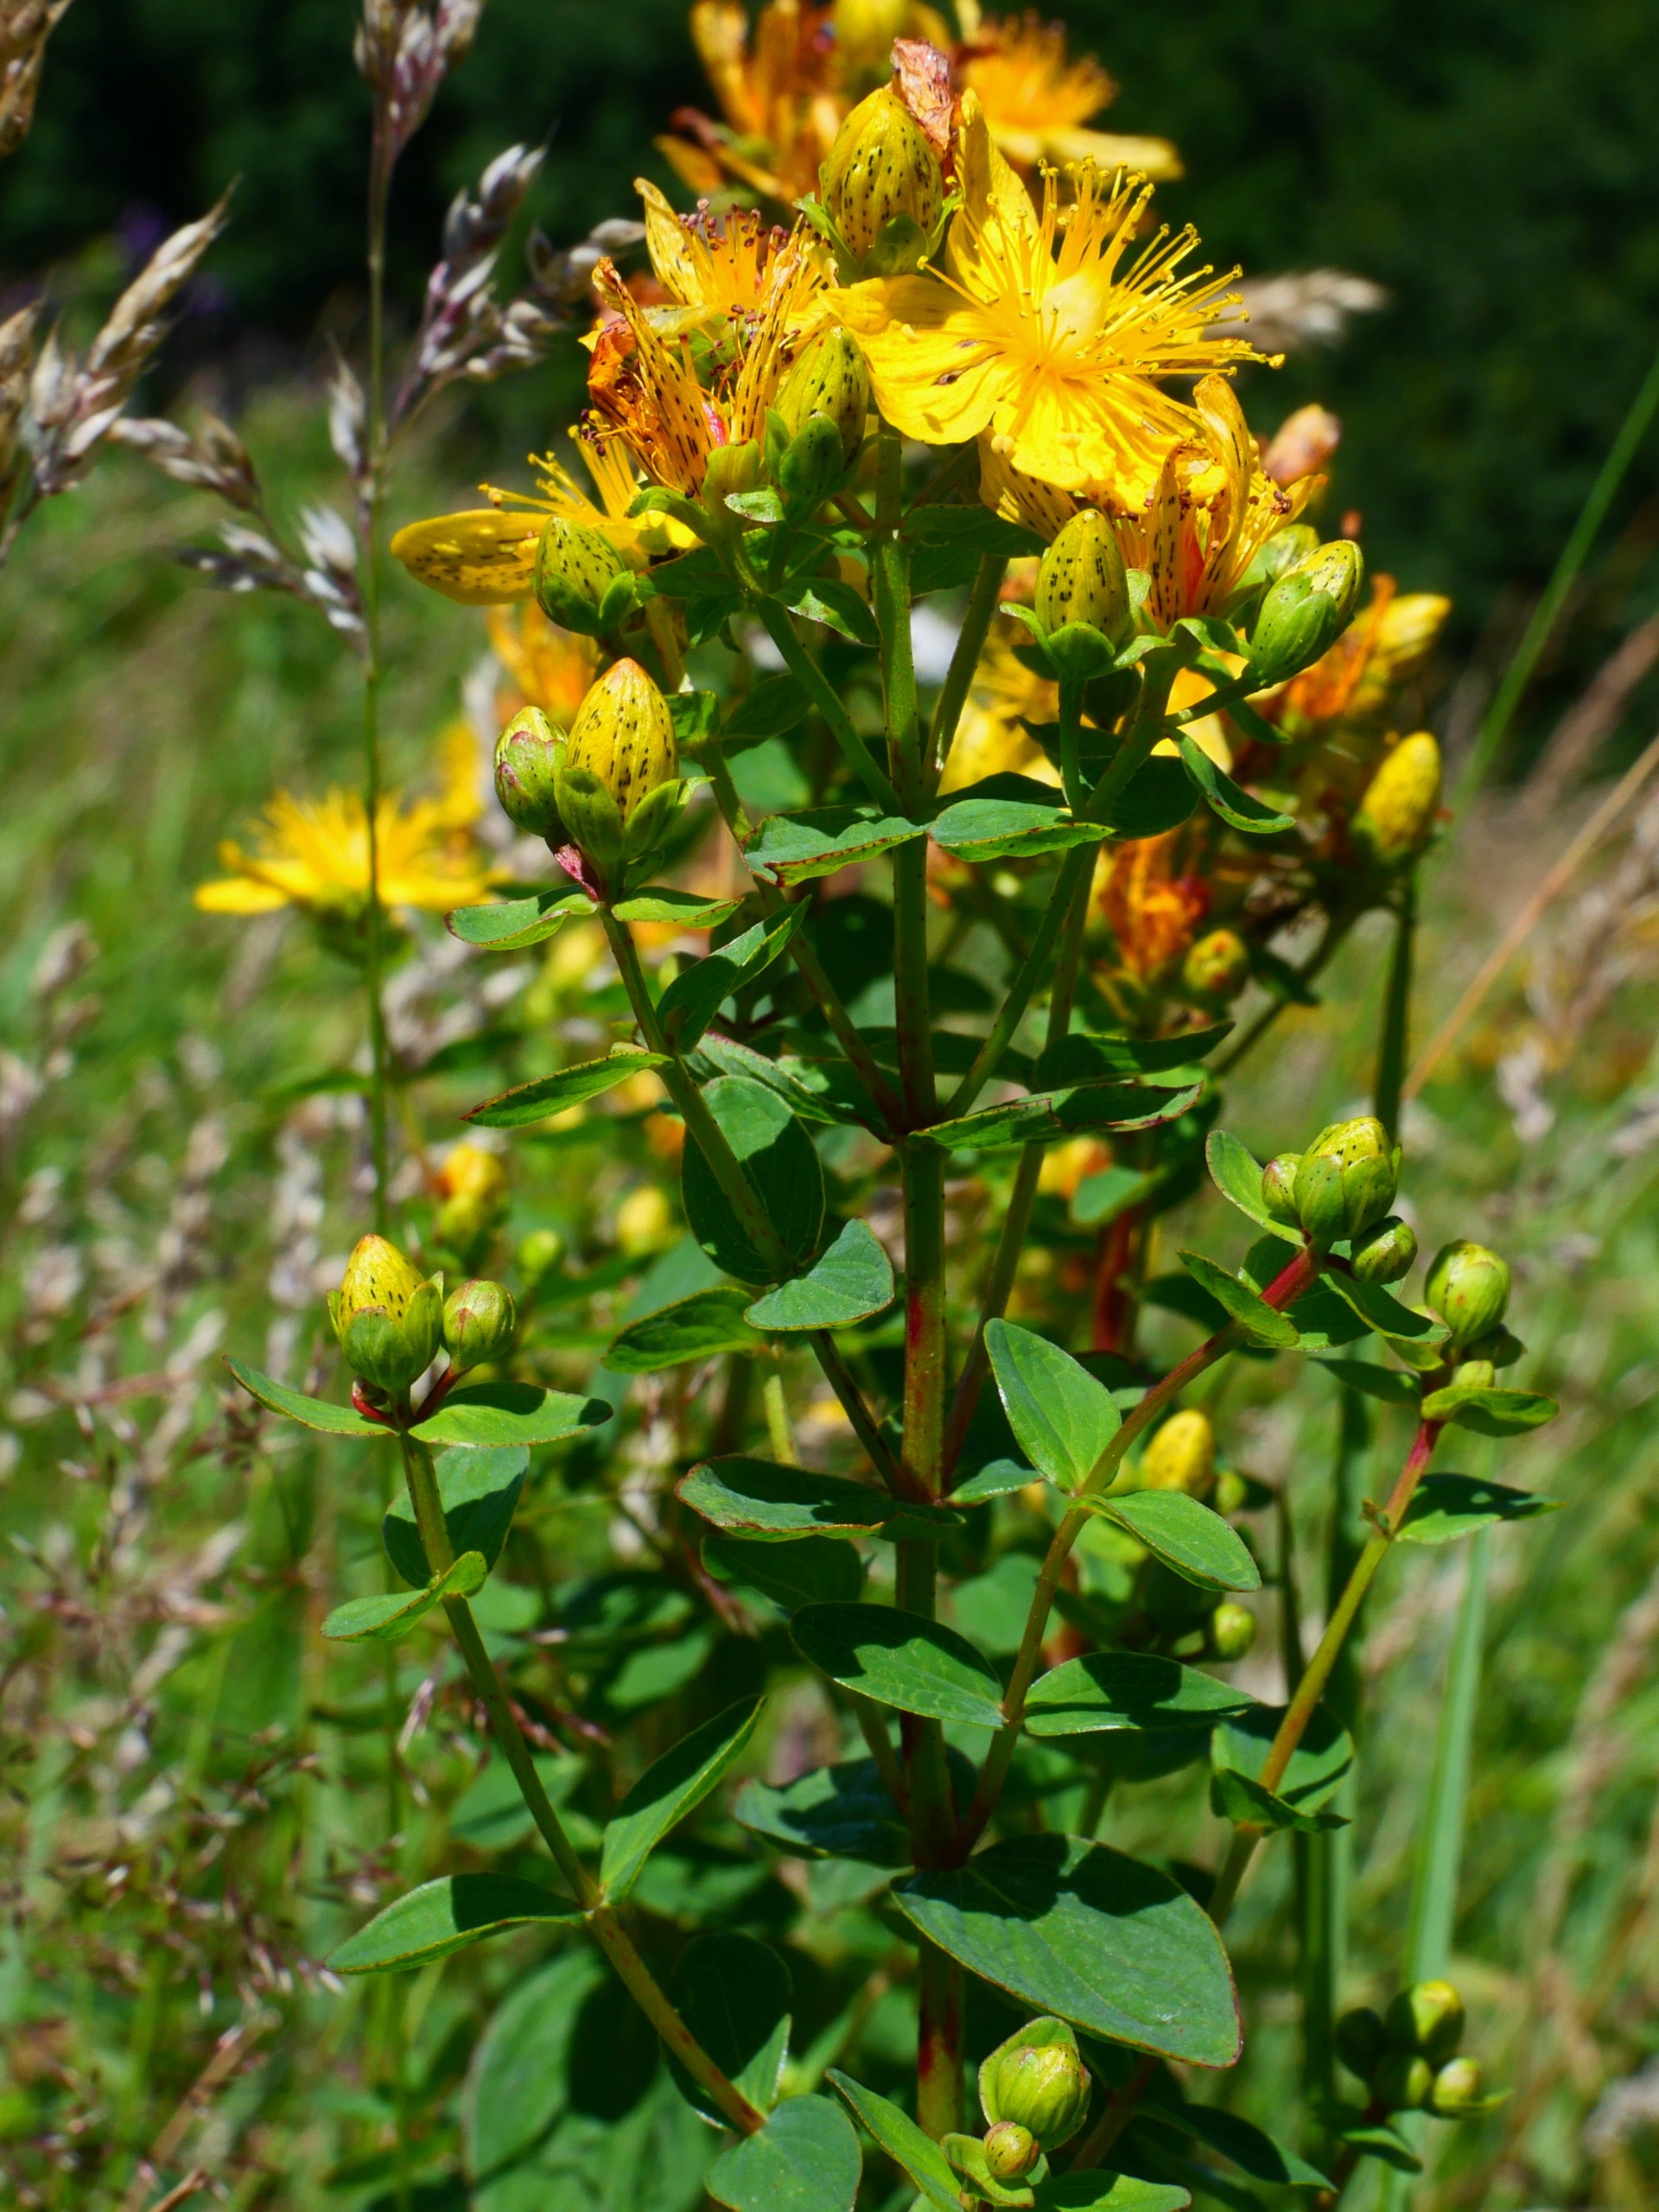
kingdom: Plantae
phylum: Tracheophyta
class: Magnoliopsida
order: Malpighiales
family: Hypericaceae
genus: Hypericum
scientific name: Hypericum maculatum
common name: Kantet perikon
